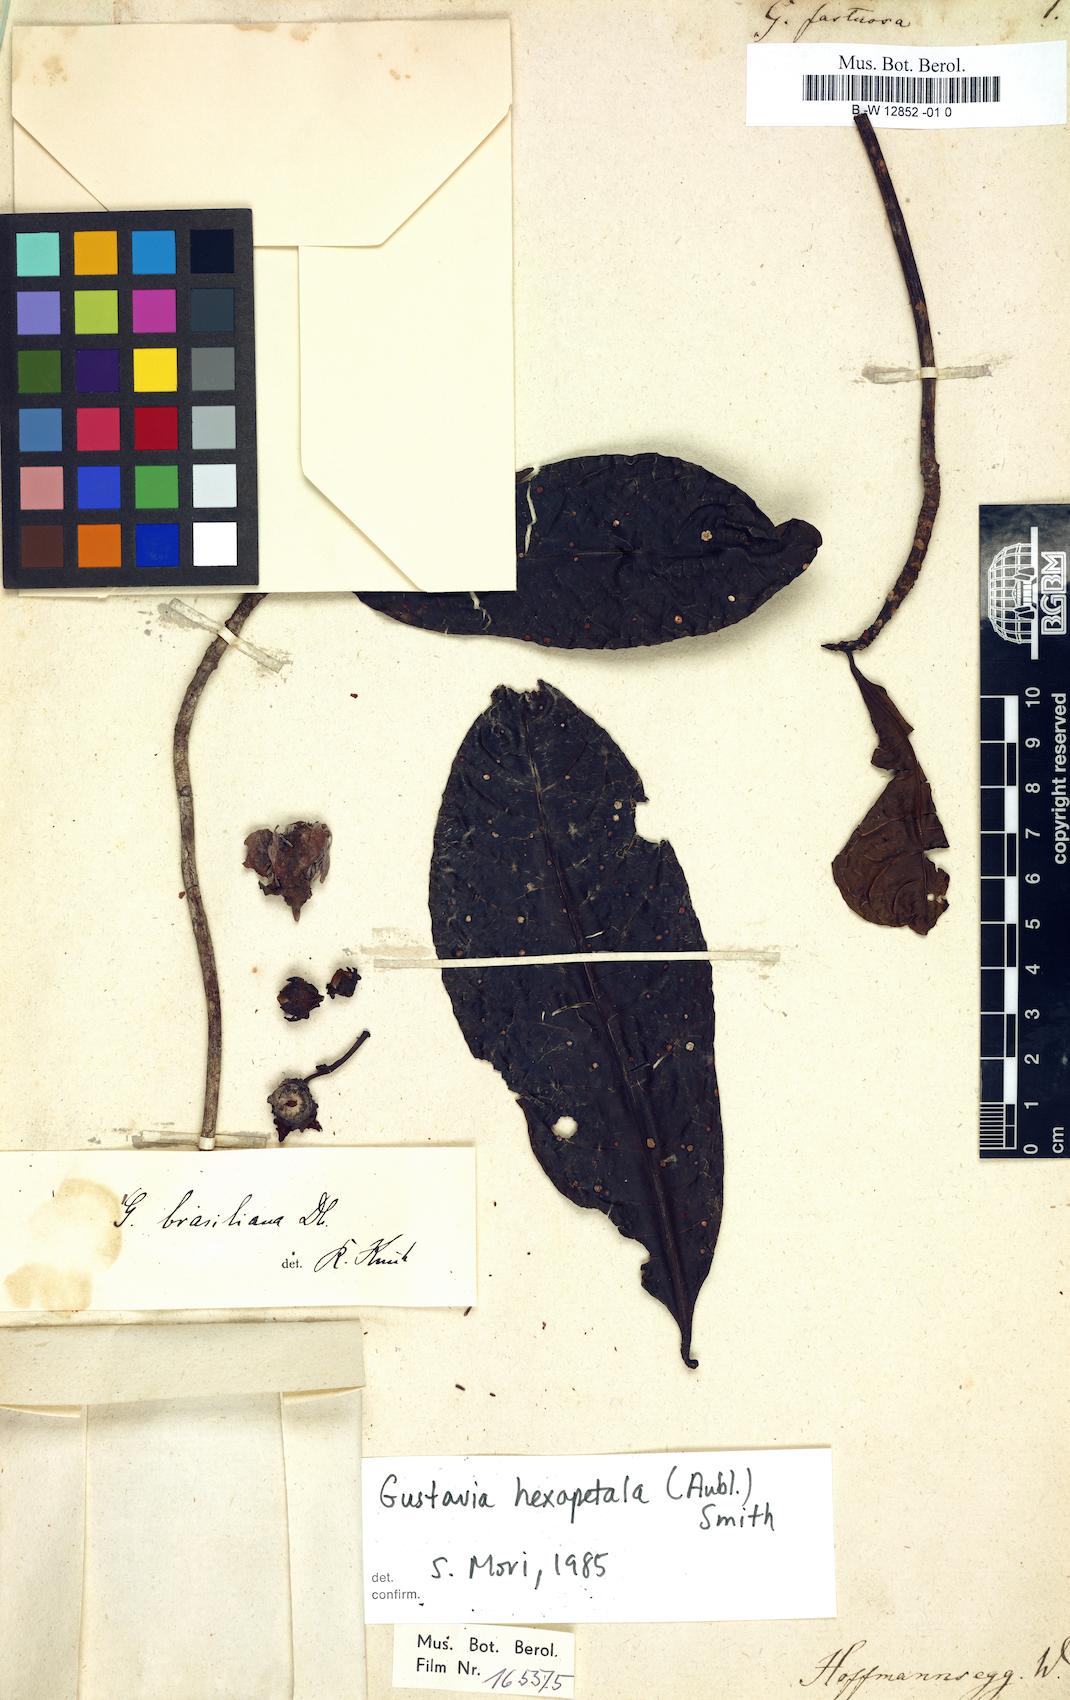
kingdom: Plantae
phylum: Tracheophyta
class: Magnoliopsida
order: Ericales
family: Lecythidaceae
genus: Gustavia
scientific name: Gustavia fastuosa
